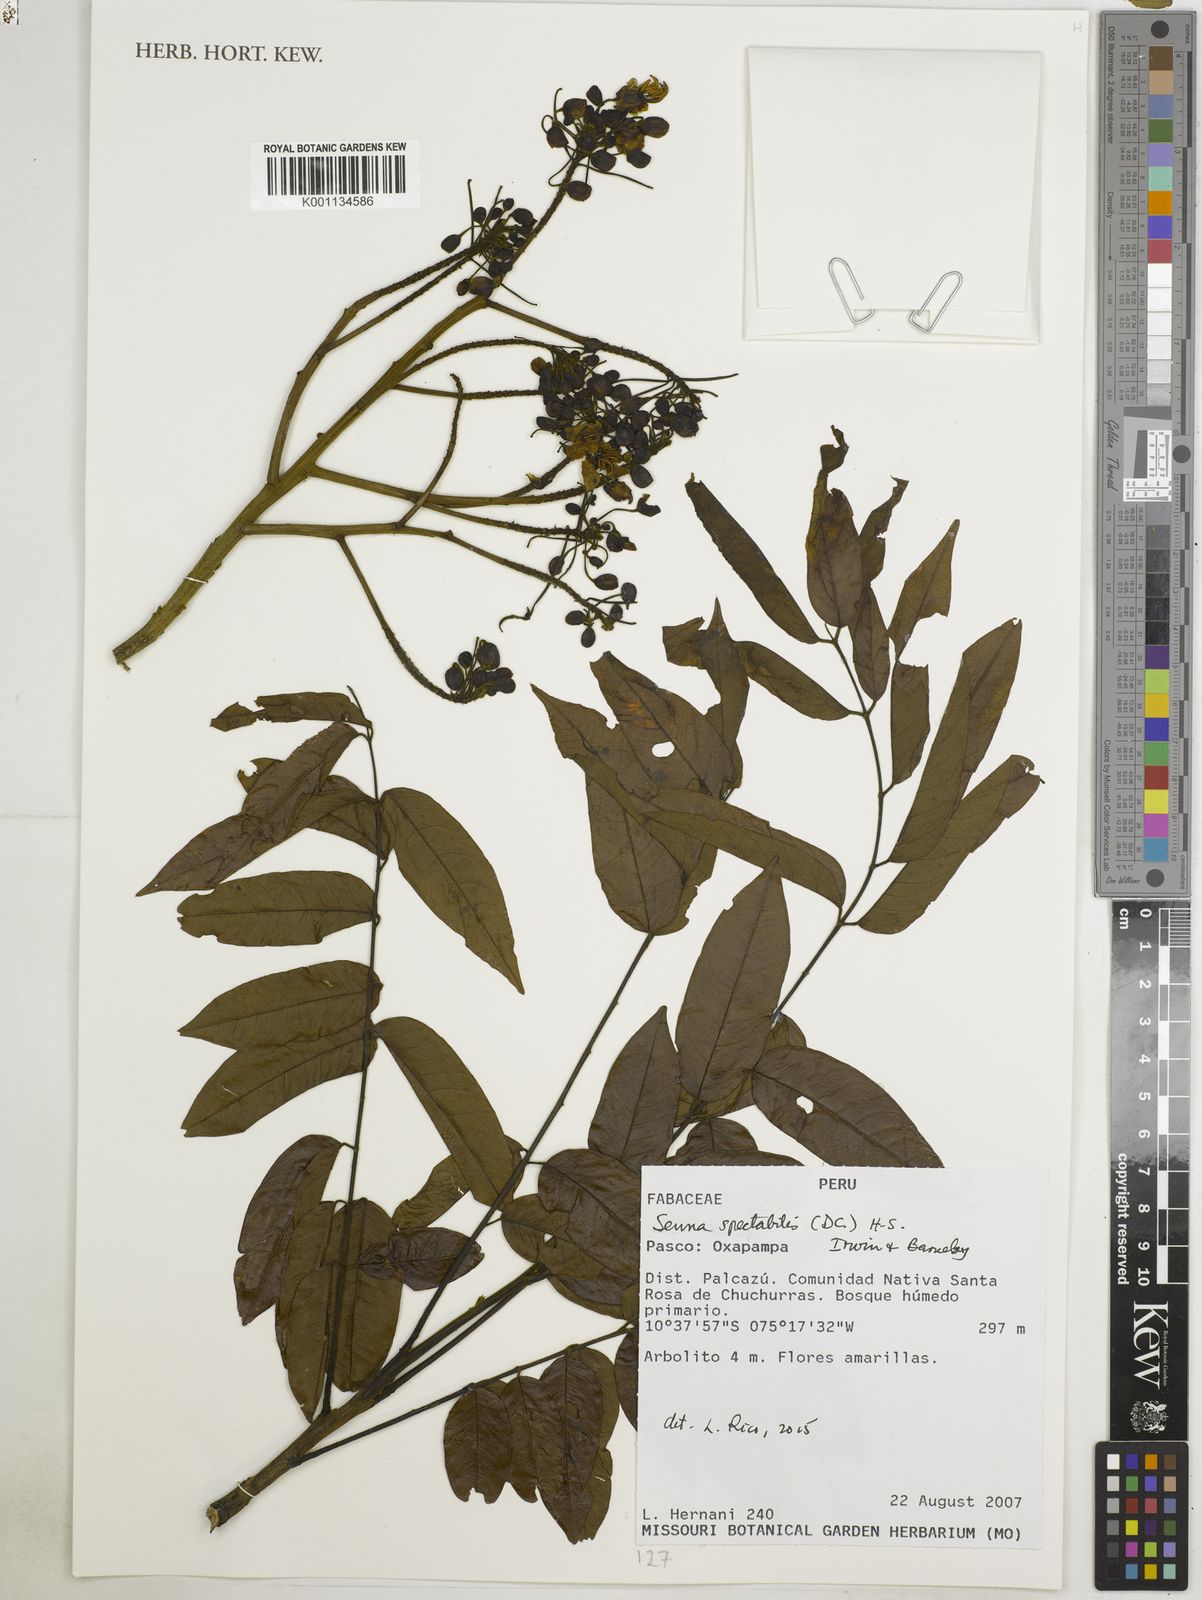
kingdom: Plantae
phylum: Tracheophyta
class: Magnoliopsida
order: Fabales
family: Fabaceae
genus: Senna
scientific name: Senna spectabilis
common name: Casia amarilla
